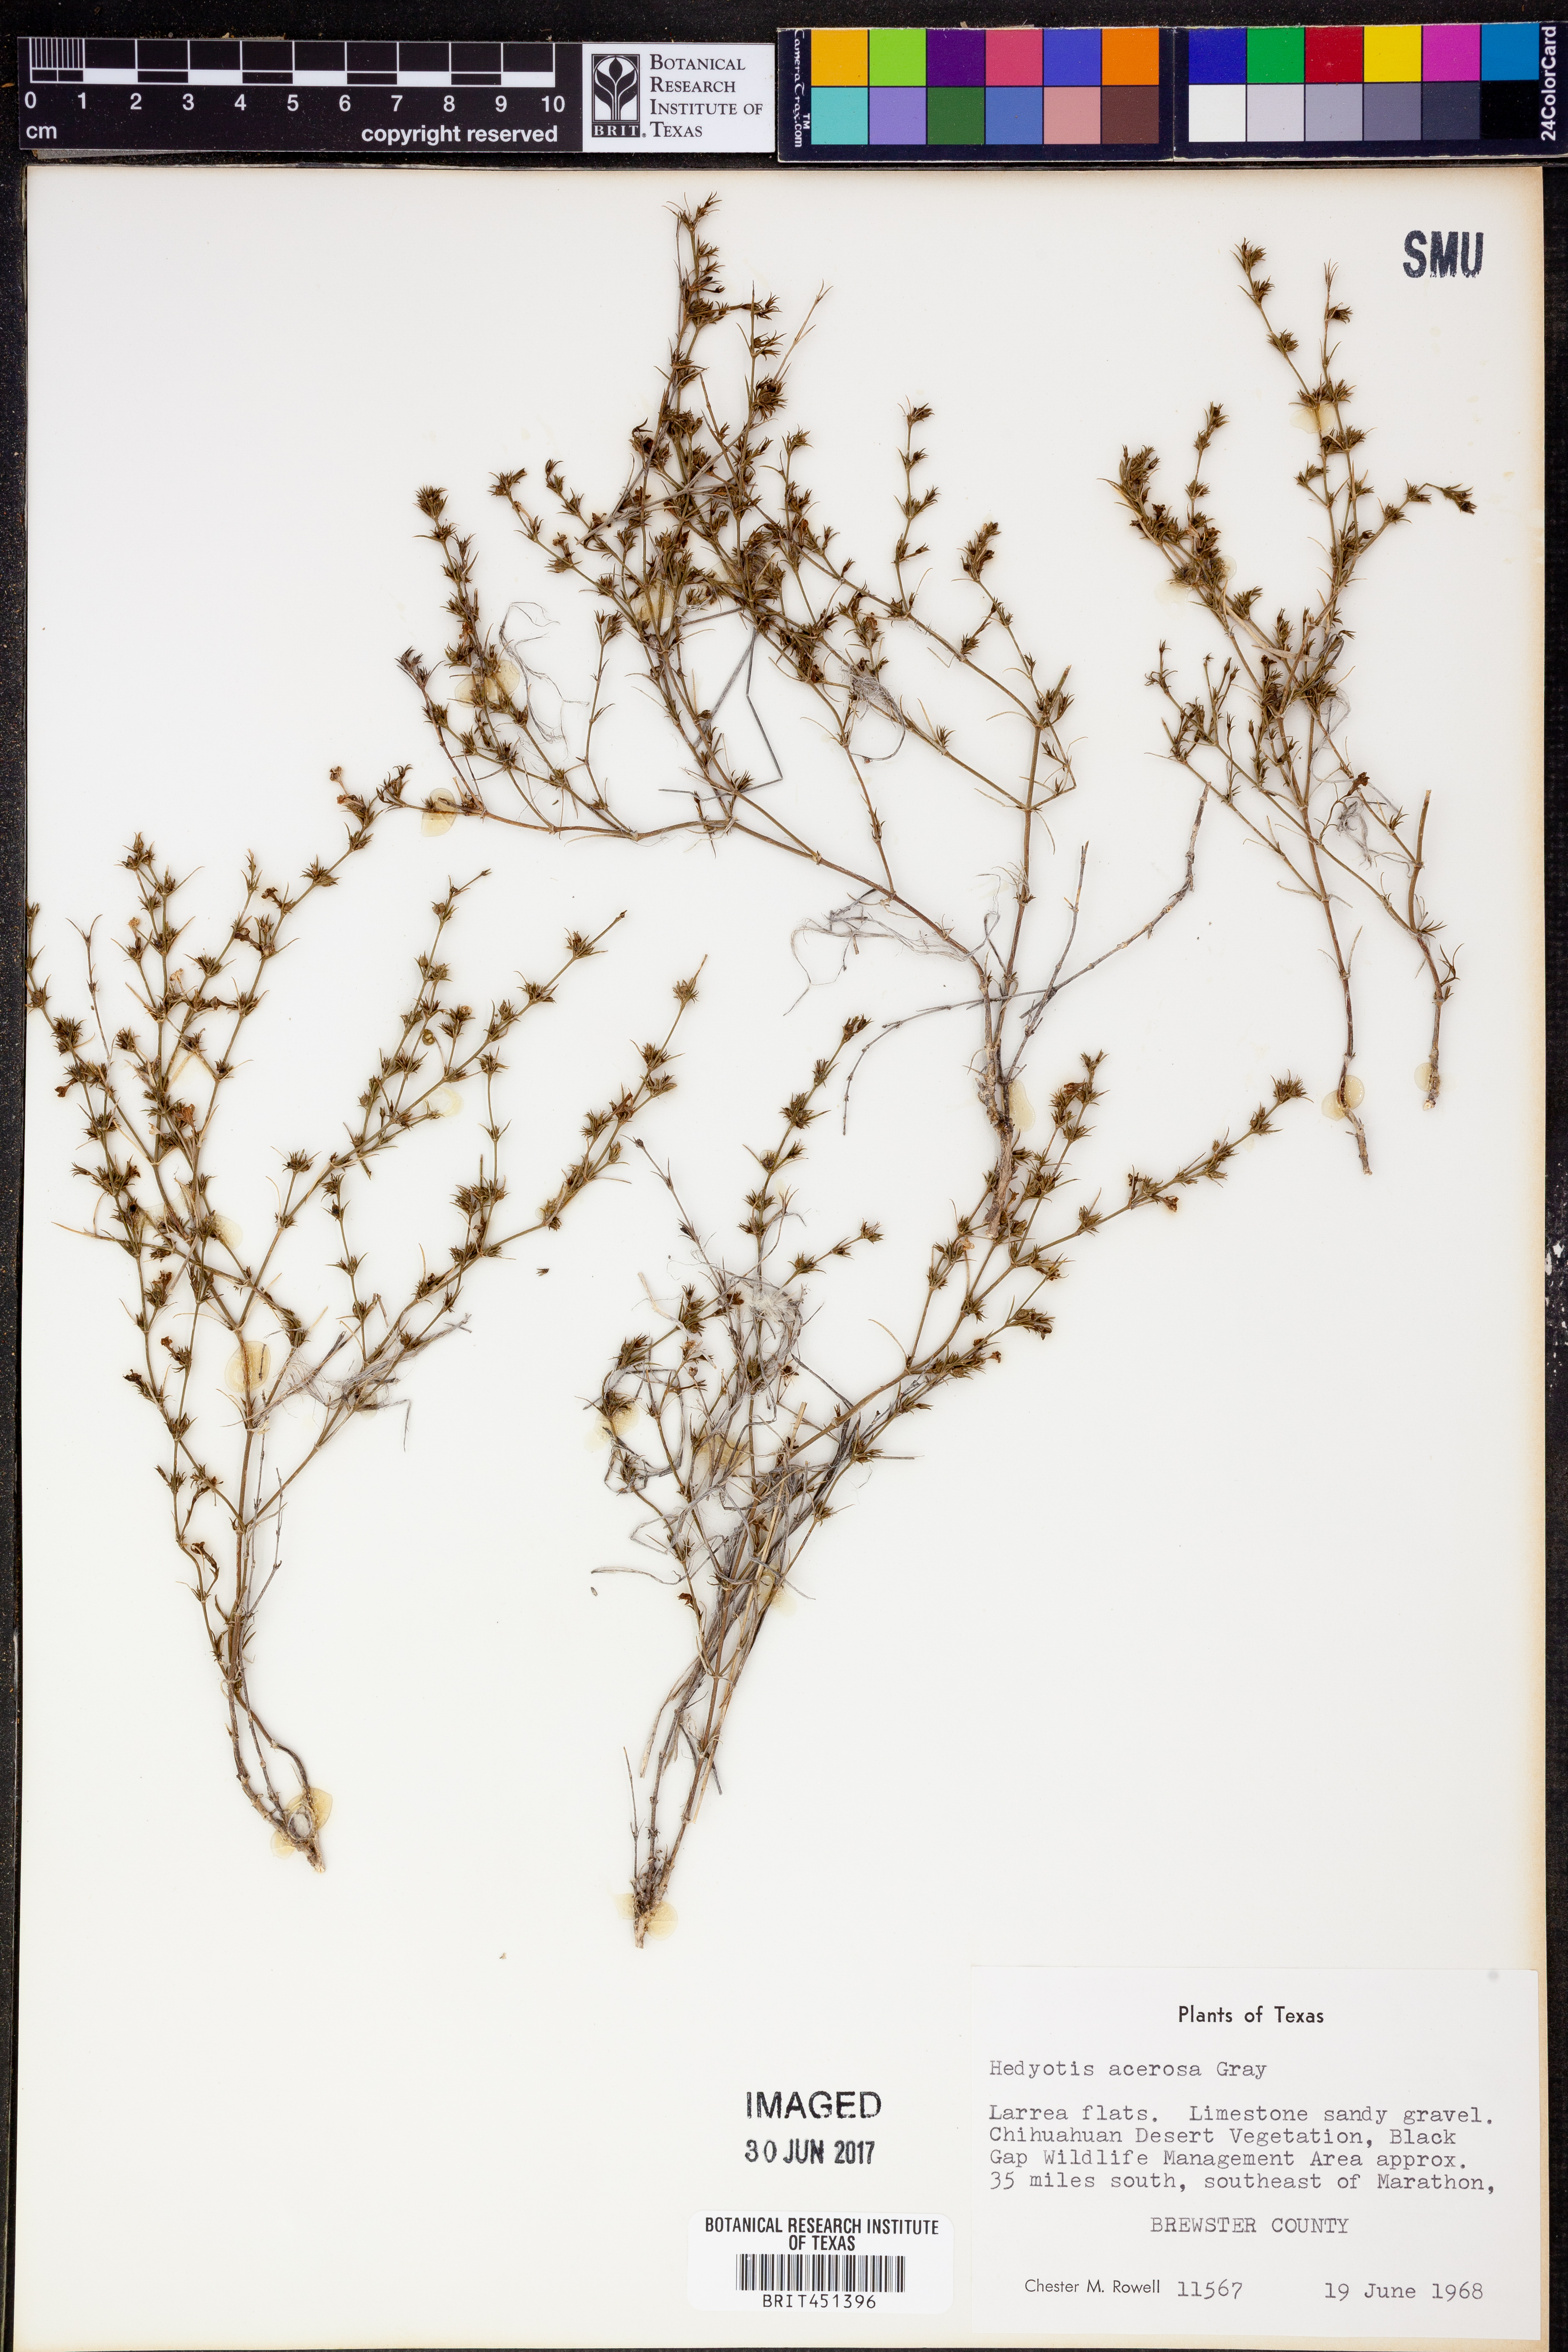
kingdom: Plantae
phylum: Tracheophyta
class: Magnoliopsida
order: Gentianales
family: Rubiaceae
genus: Houstonia
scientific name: Houstonia acerosa
